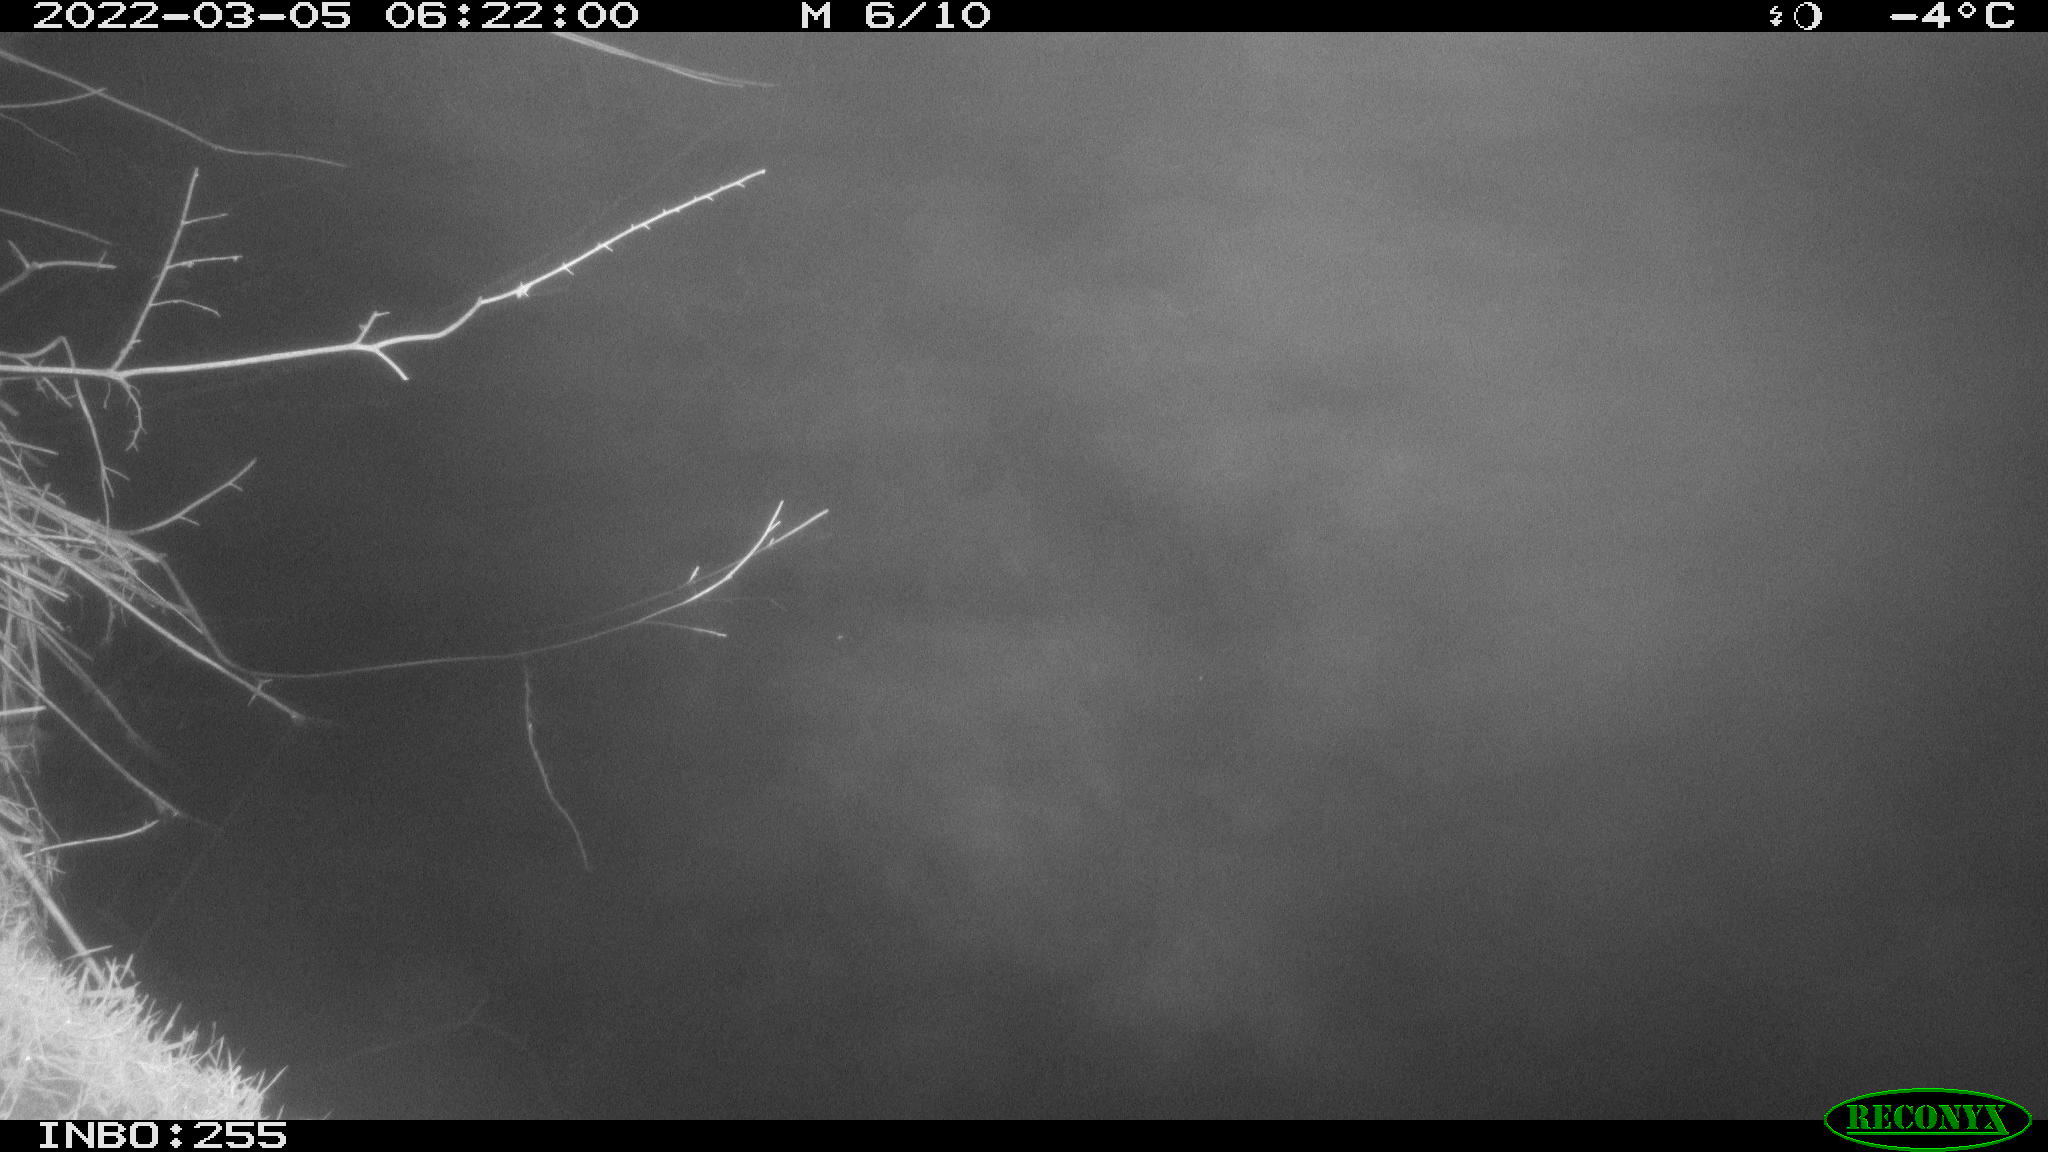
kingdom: Animalia
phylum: Chordata
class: Aves
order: Anseriformes
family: Anatidae
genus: Anas
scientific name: Anas platyrhynchos
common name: Mallard
